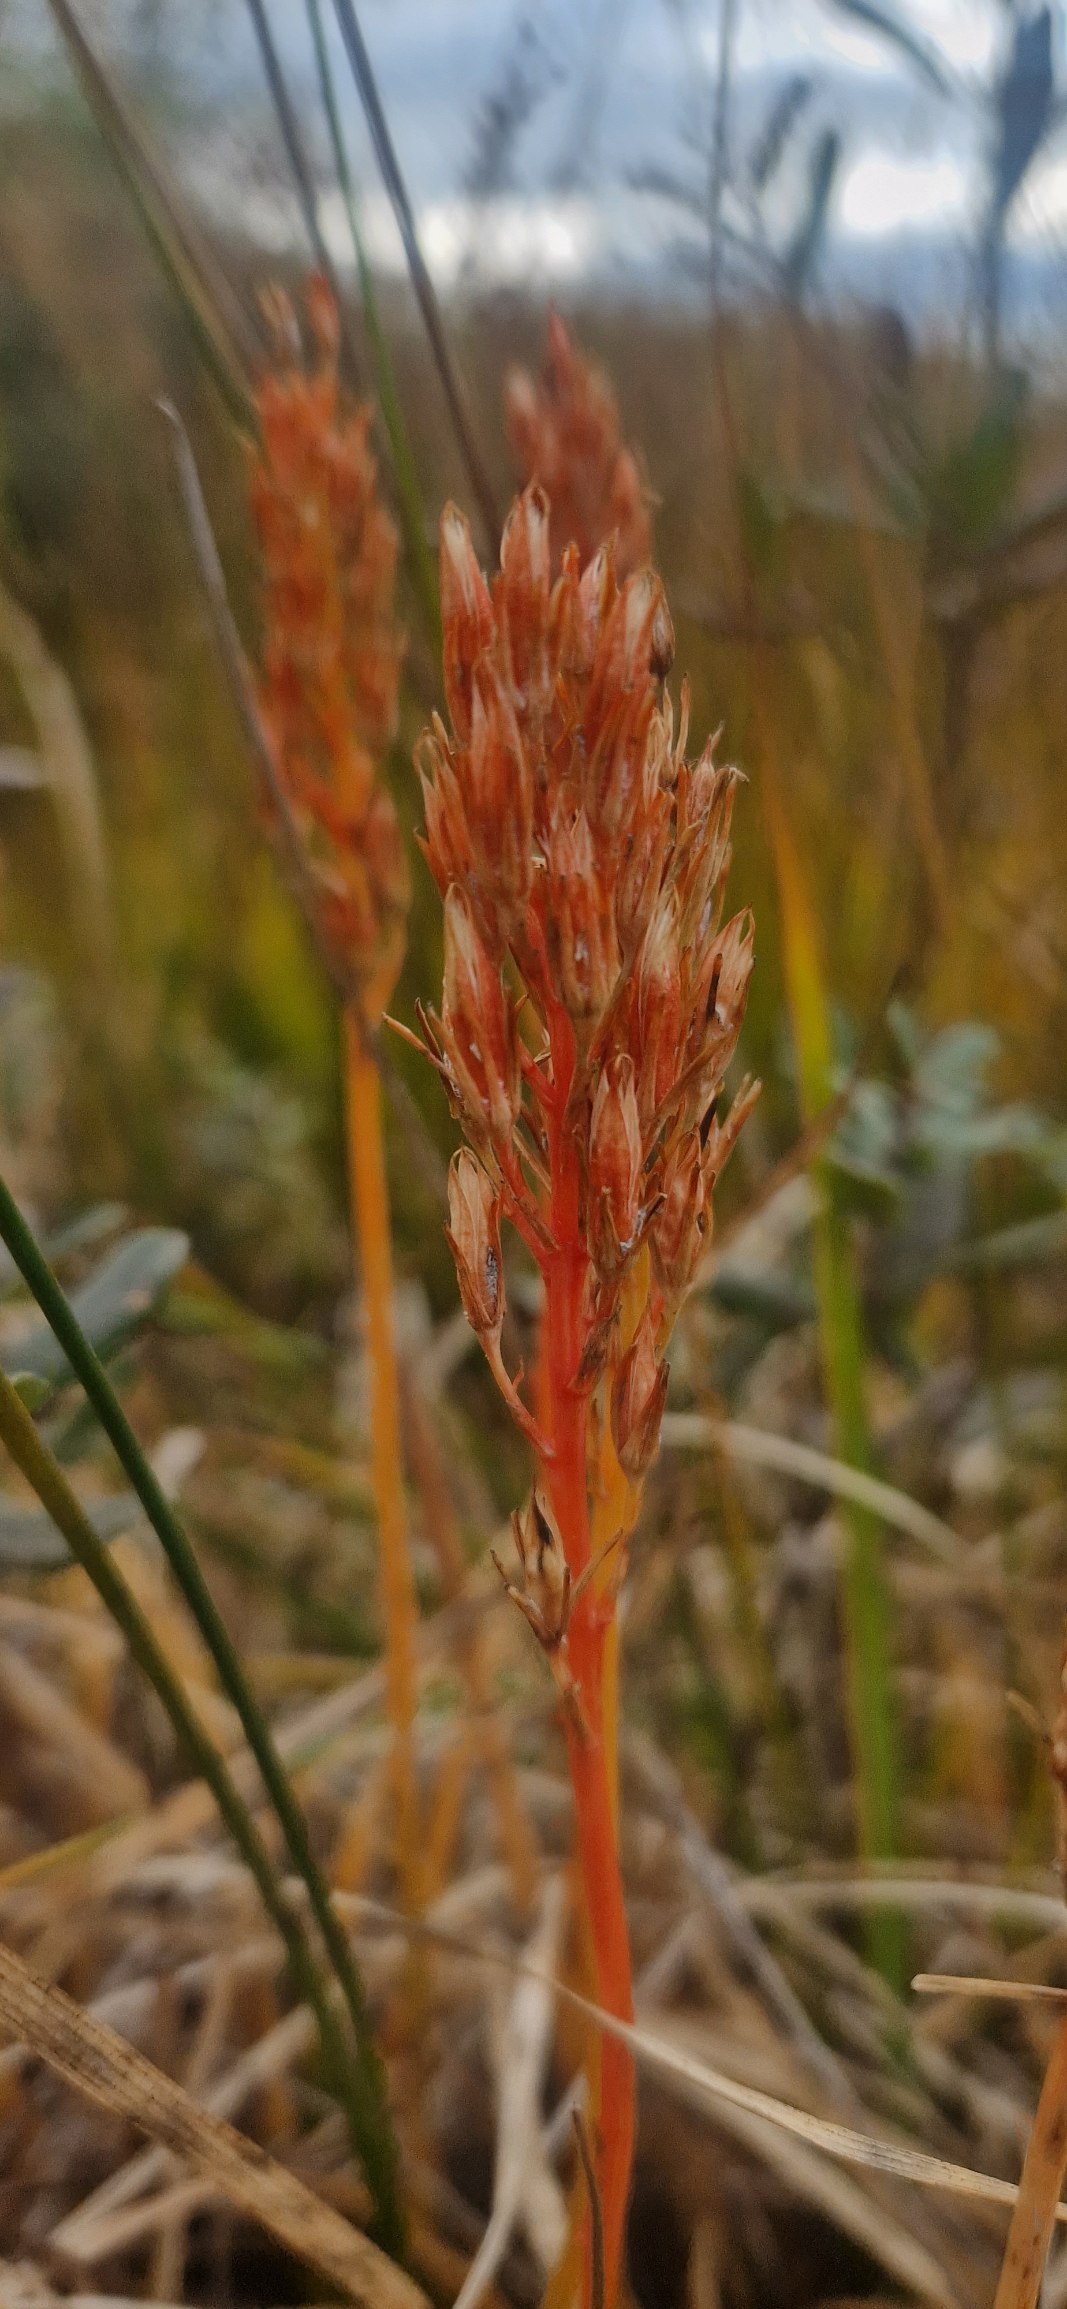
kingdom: Plantae
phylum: Tracheophyta
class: Liliopsida
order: Dioscoreales
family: Nartheciaceae
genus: Narthecium
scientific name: Narthecium ossifragum
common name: Benbræk
